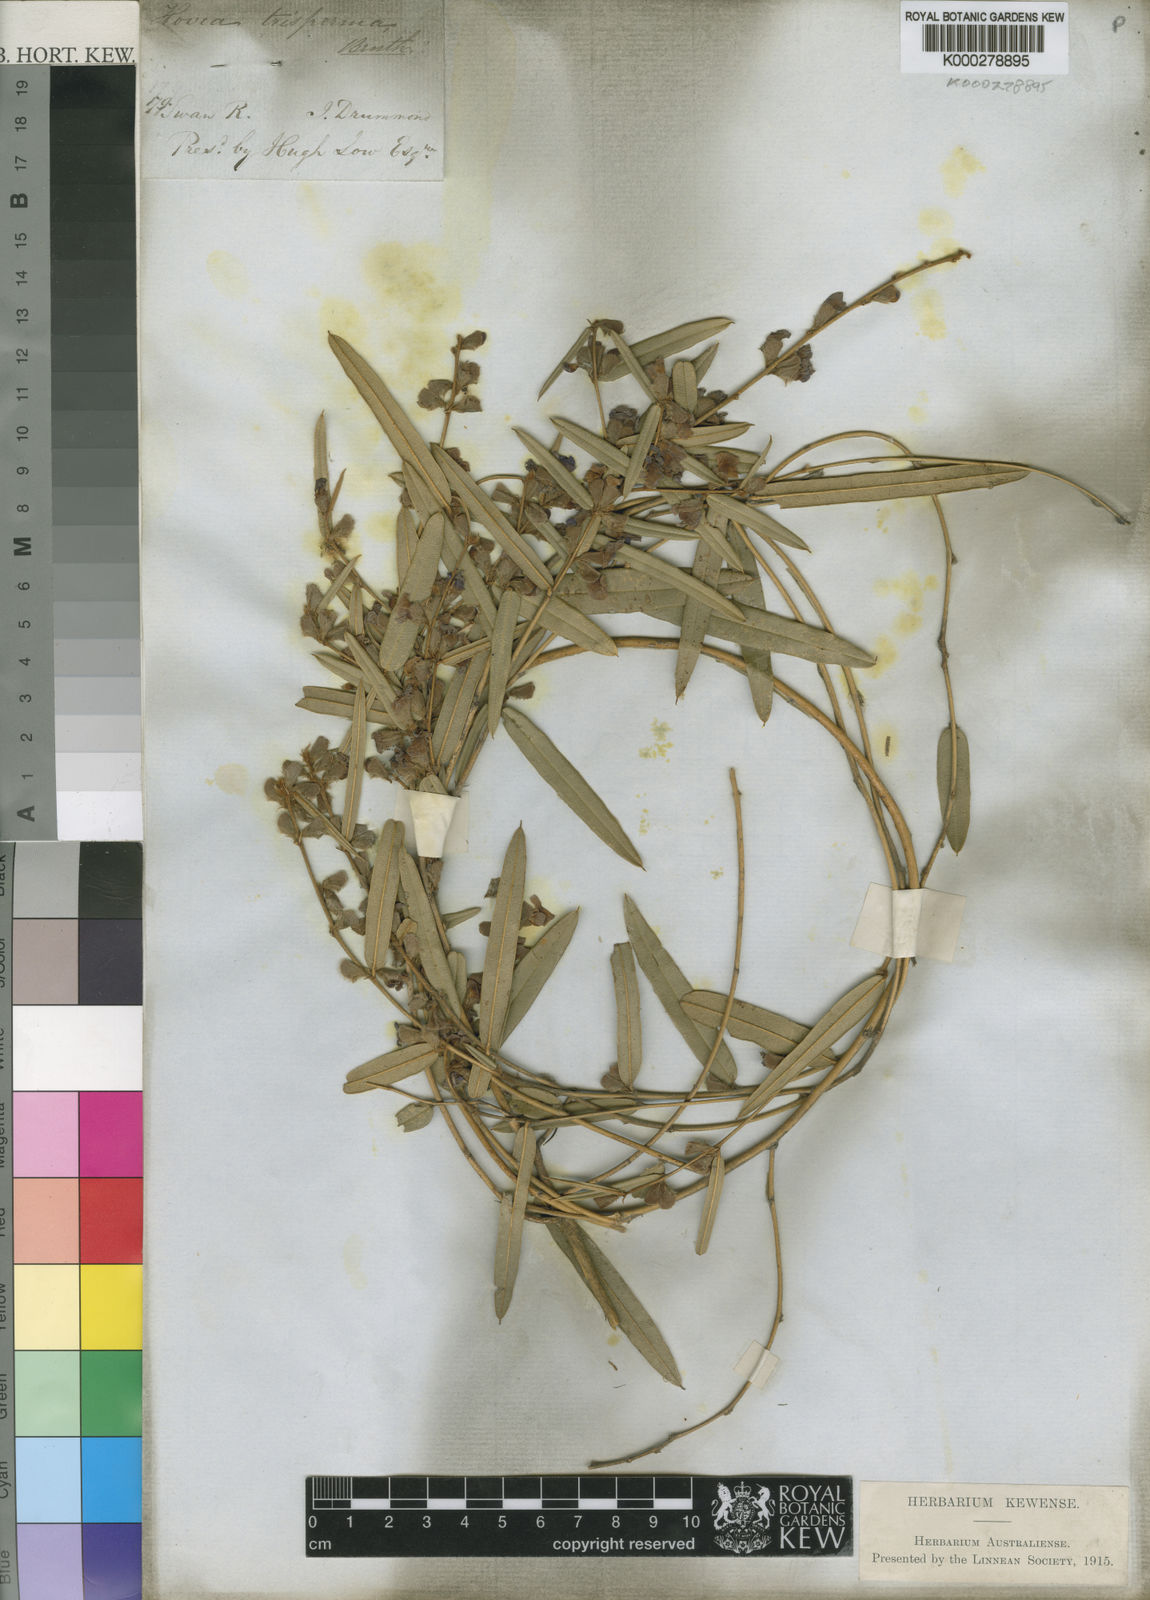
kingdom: Plantae
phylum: Tracheophyta
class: Magnoliopsida
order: Fabales
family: Fabaceae
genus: Hovea
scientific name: Hovea trisperma
